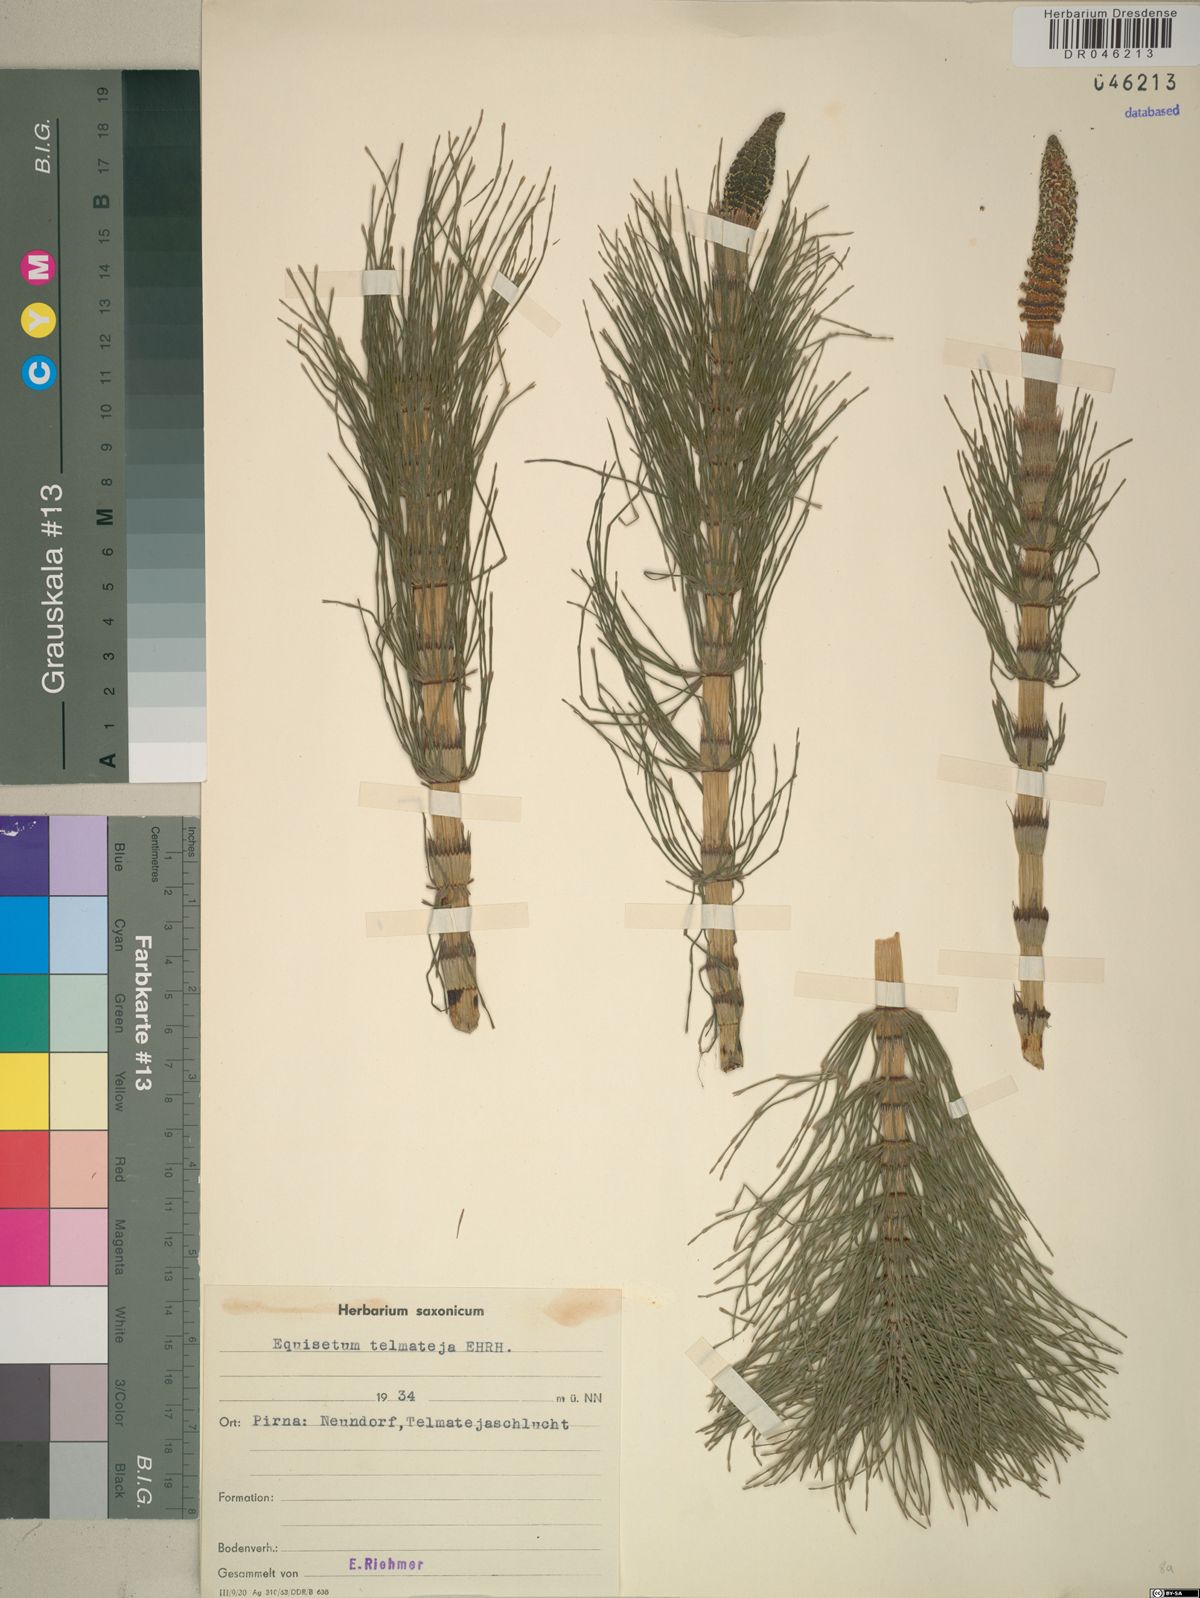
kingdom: Plantae
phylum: Tracheophyta
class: Polypodiopsida
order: Equisetales
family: Equisetaceae
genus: Equisetum
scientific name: Equisetum telmateia
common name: Great horsetail
